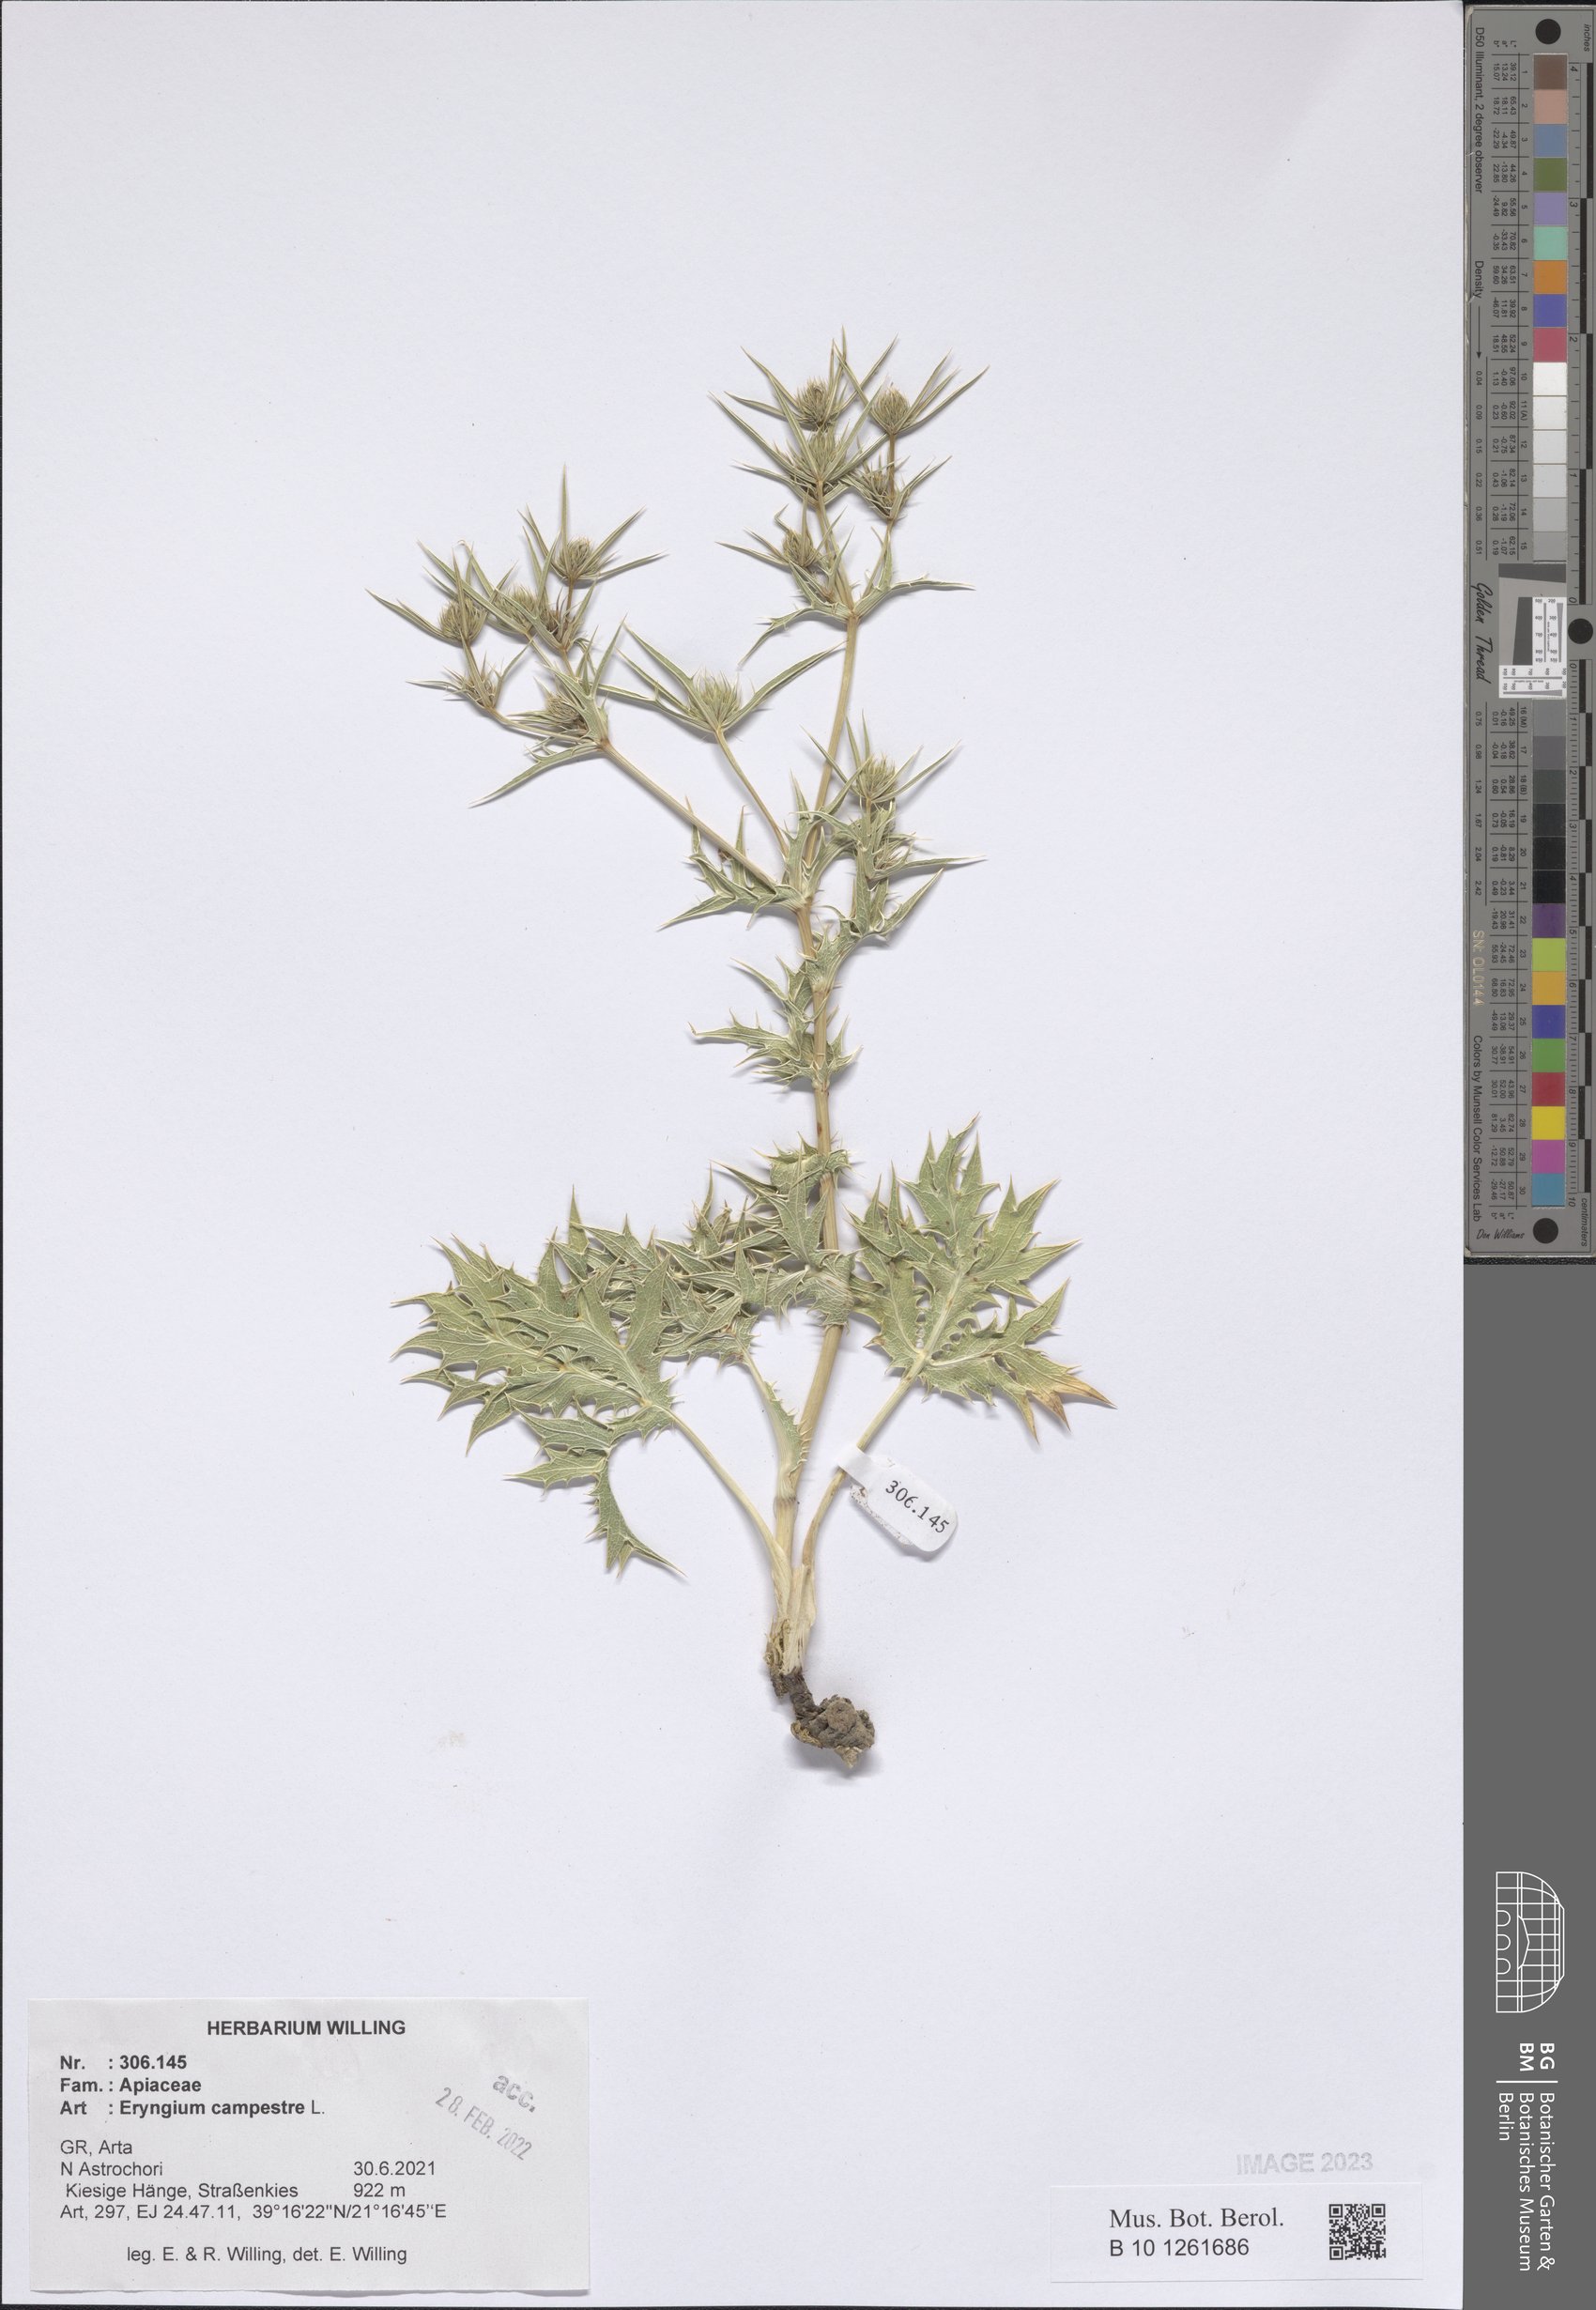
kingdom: Plantae
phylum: Tracheophyta
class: Magnoliopsida
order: Apiales
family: Apiaceae
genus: Eryngium
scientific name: Eryngium campestre
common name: Field eryngo
